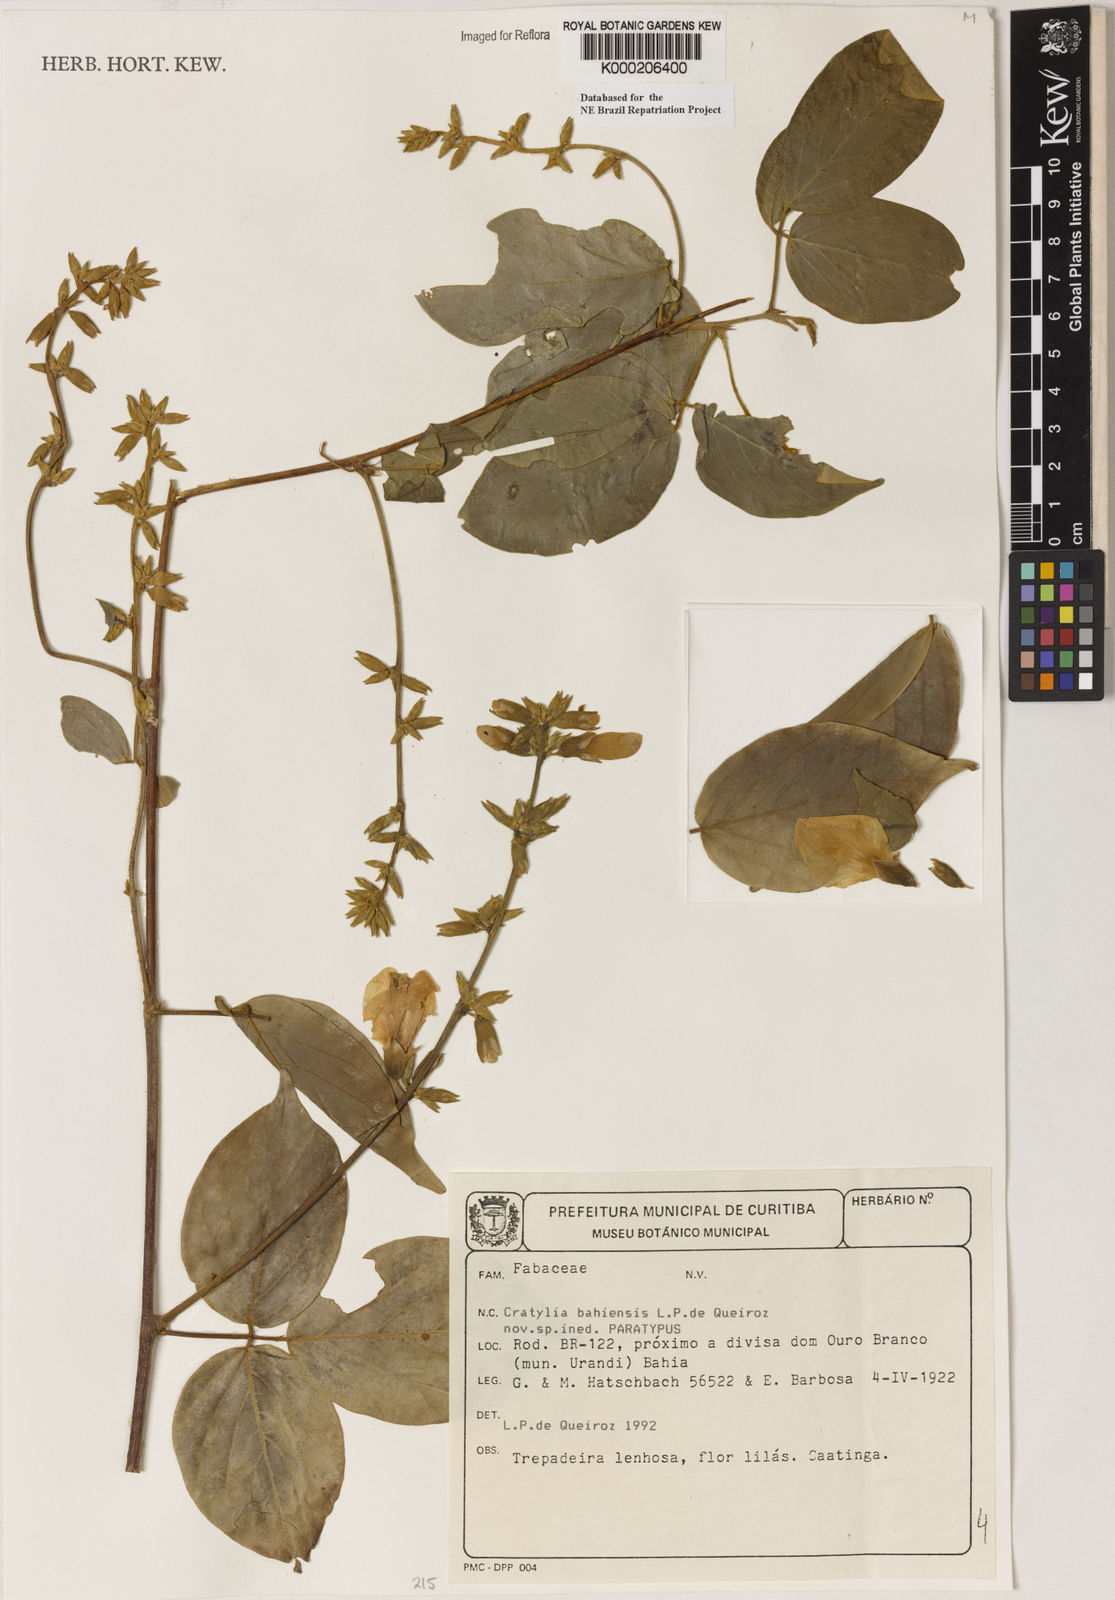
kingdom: Plantae
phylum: Tracheophyta
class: Magnoliopsida
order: Fabales
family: Fabaceae
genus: Cratylia
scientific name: Cratylia bahiensis
